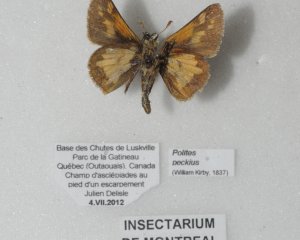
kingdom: Animalia
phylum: Arthropoda
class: Insecta
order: Lepidoptera
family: Hesperiidae
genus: Polites
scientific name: Polites coras
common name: Peck's Skipper
